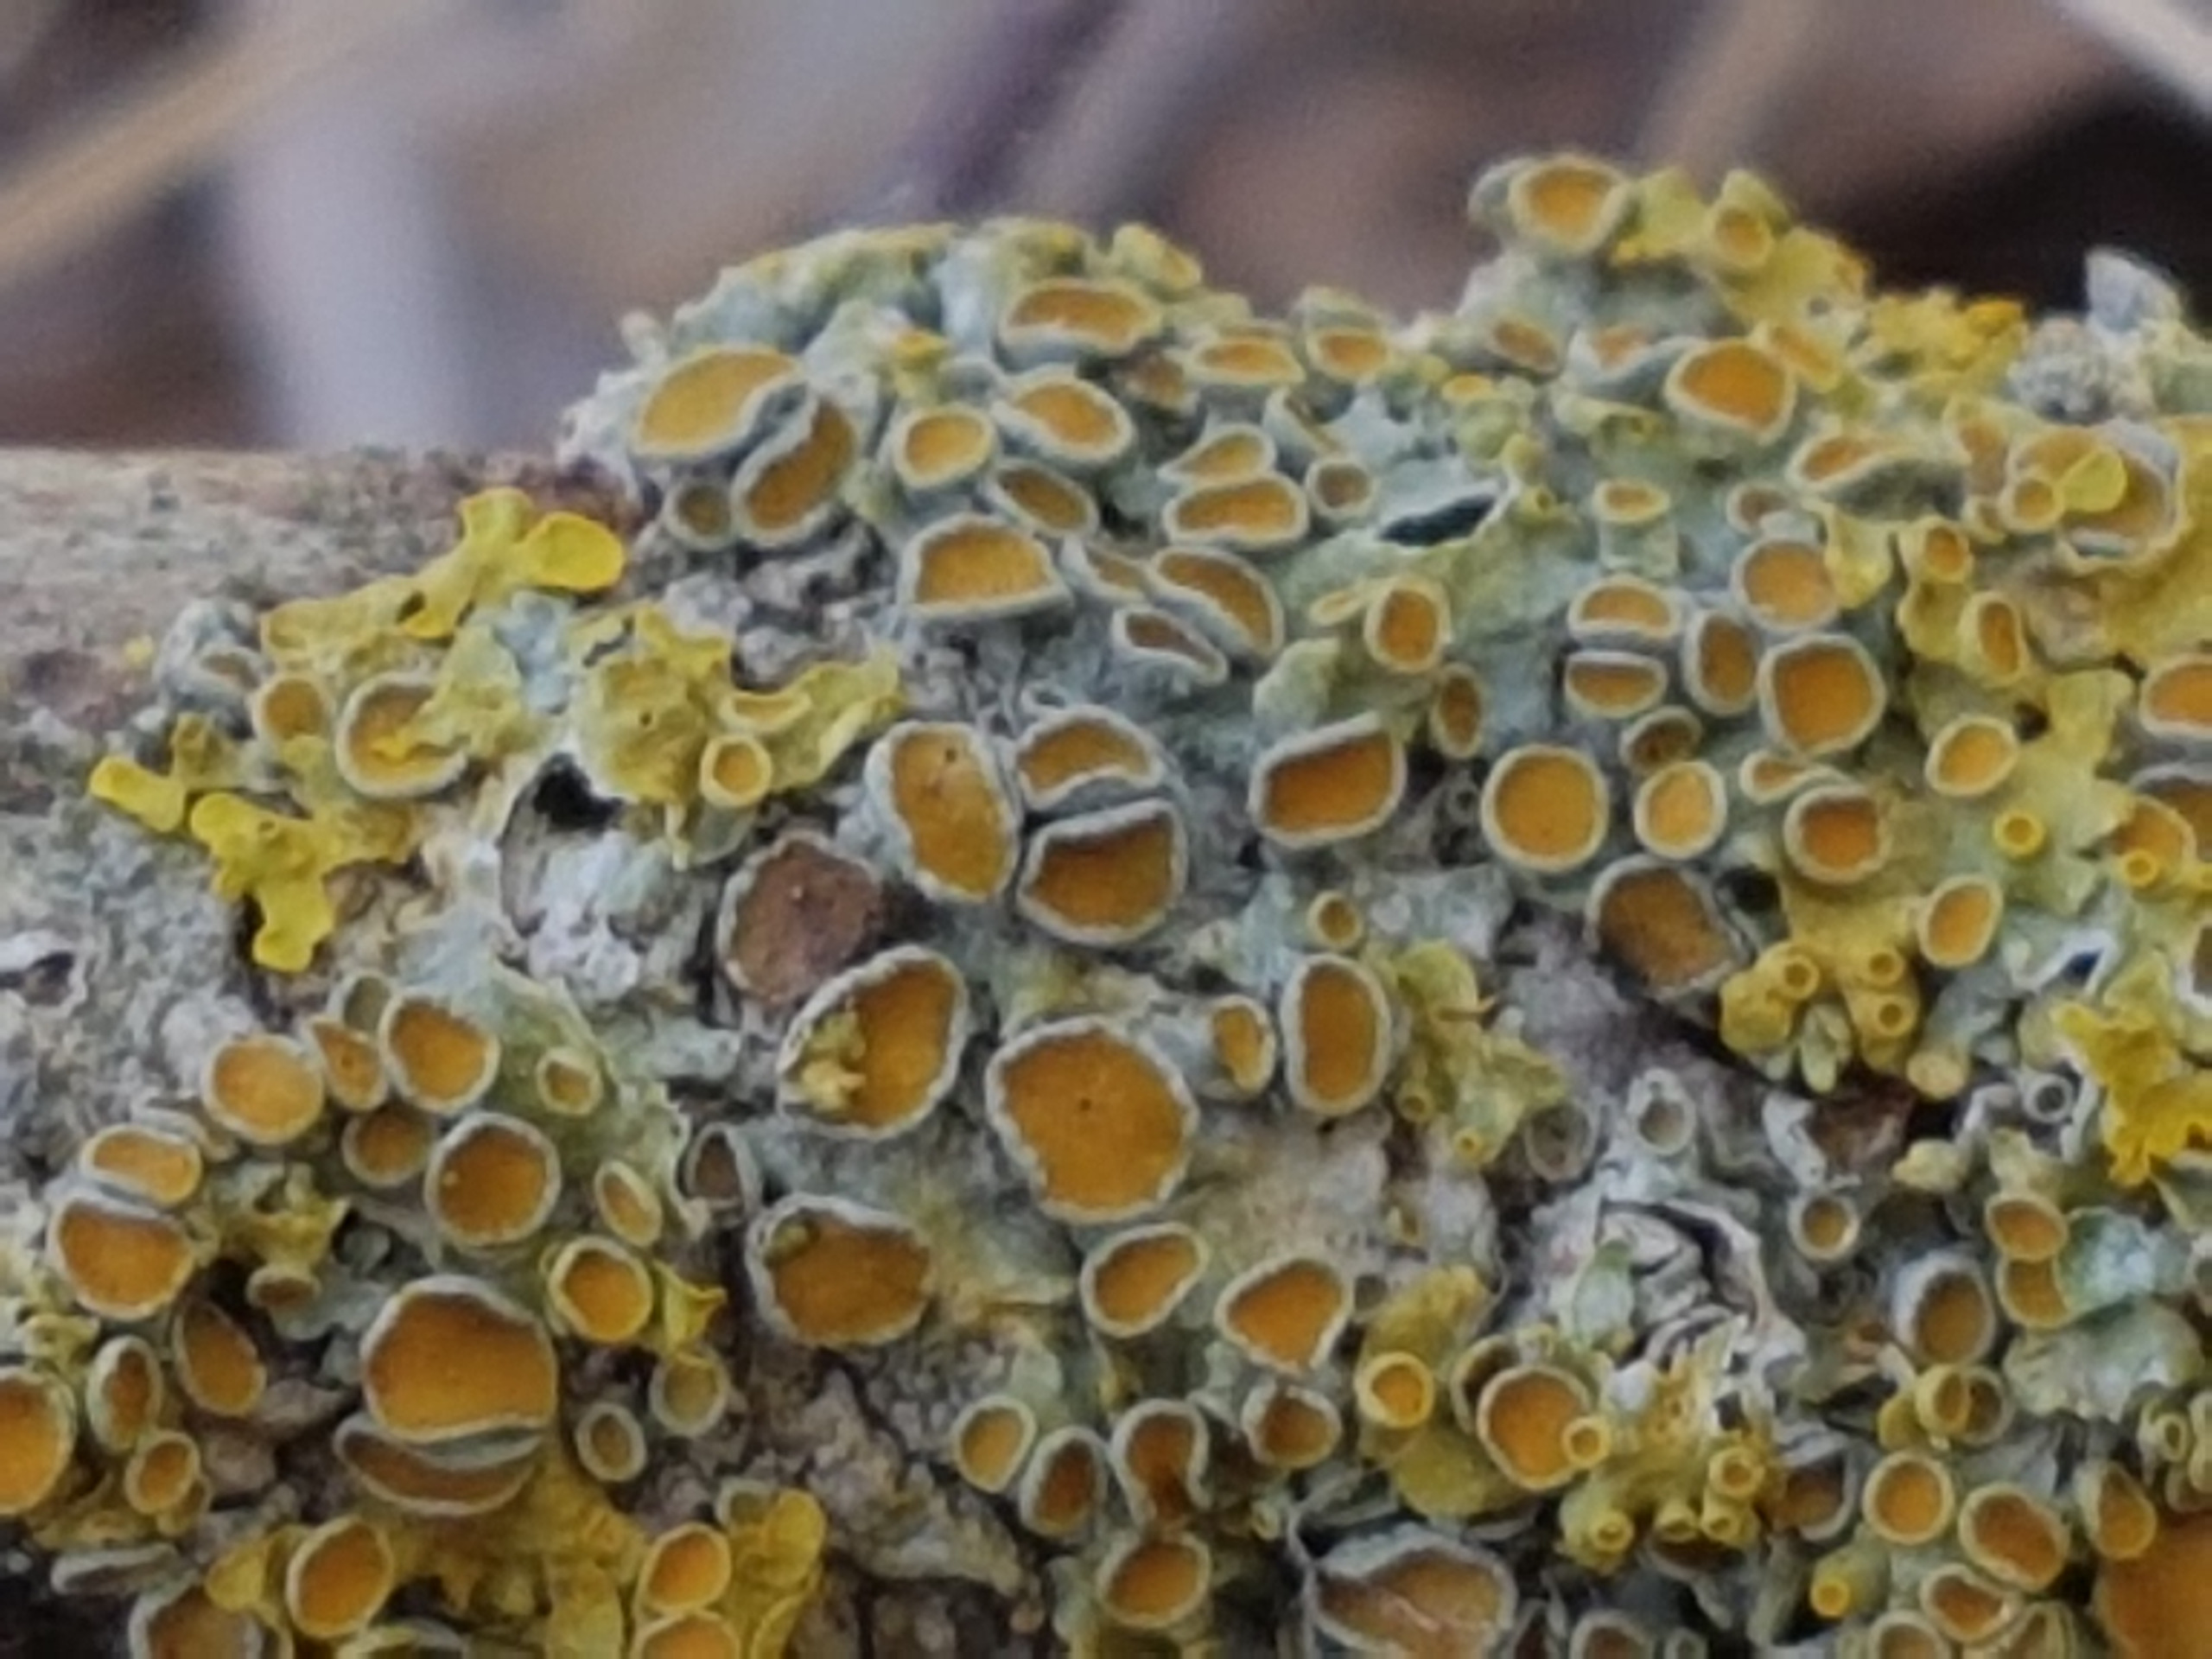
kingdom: Fungi
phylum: Ascomycota
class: Lecanoromycetes
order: Teloschistales
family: Teloschistaceae
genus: Xanthoria
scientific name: Xanthoria parietina
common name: Almindelig væggelav
